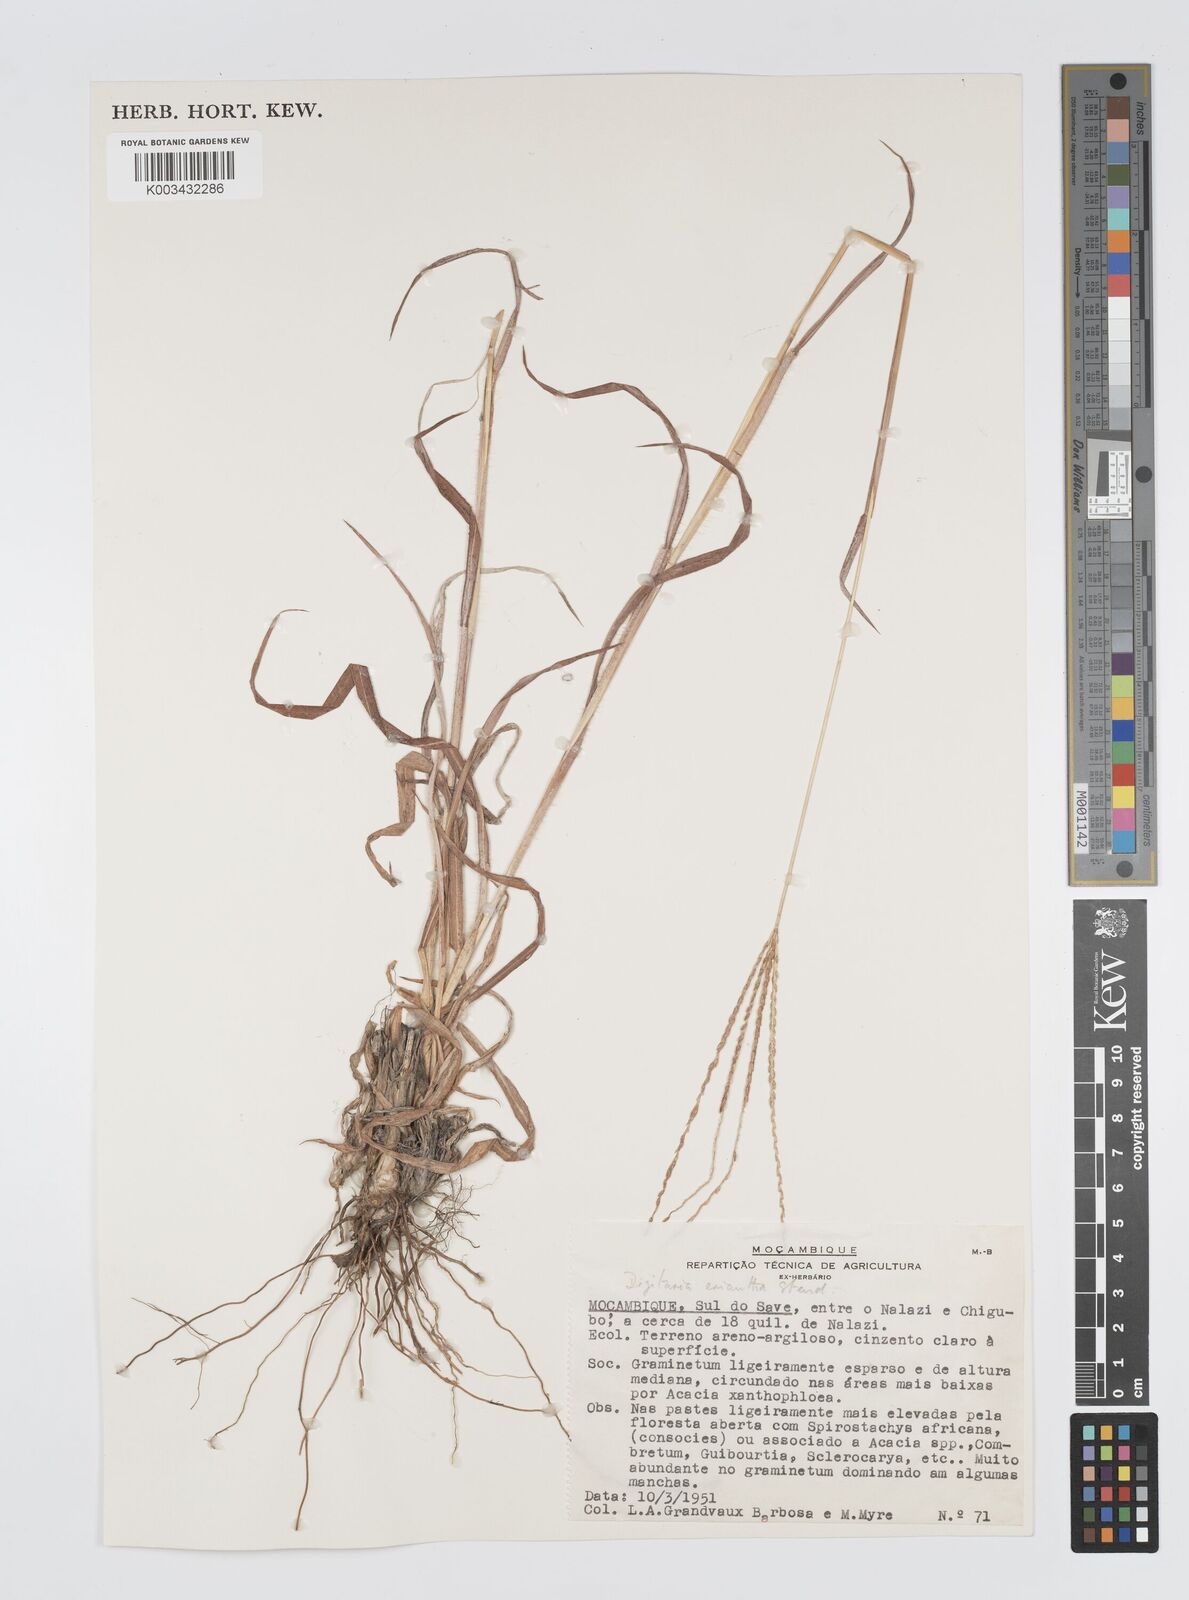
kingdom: Plantae
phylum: Tracheophyta
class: Liliopsida
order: Poales
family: Poaceae
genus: Digitaria
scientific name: Digitaria seriata
